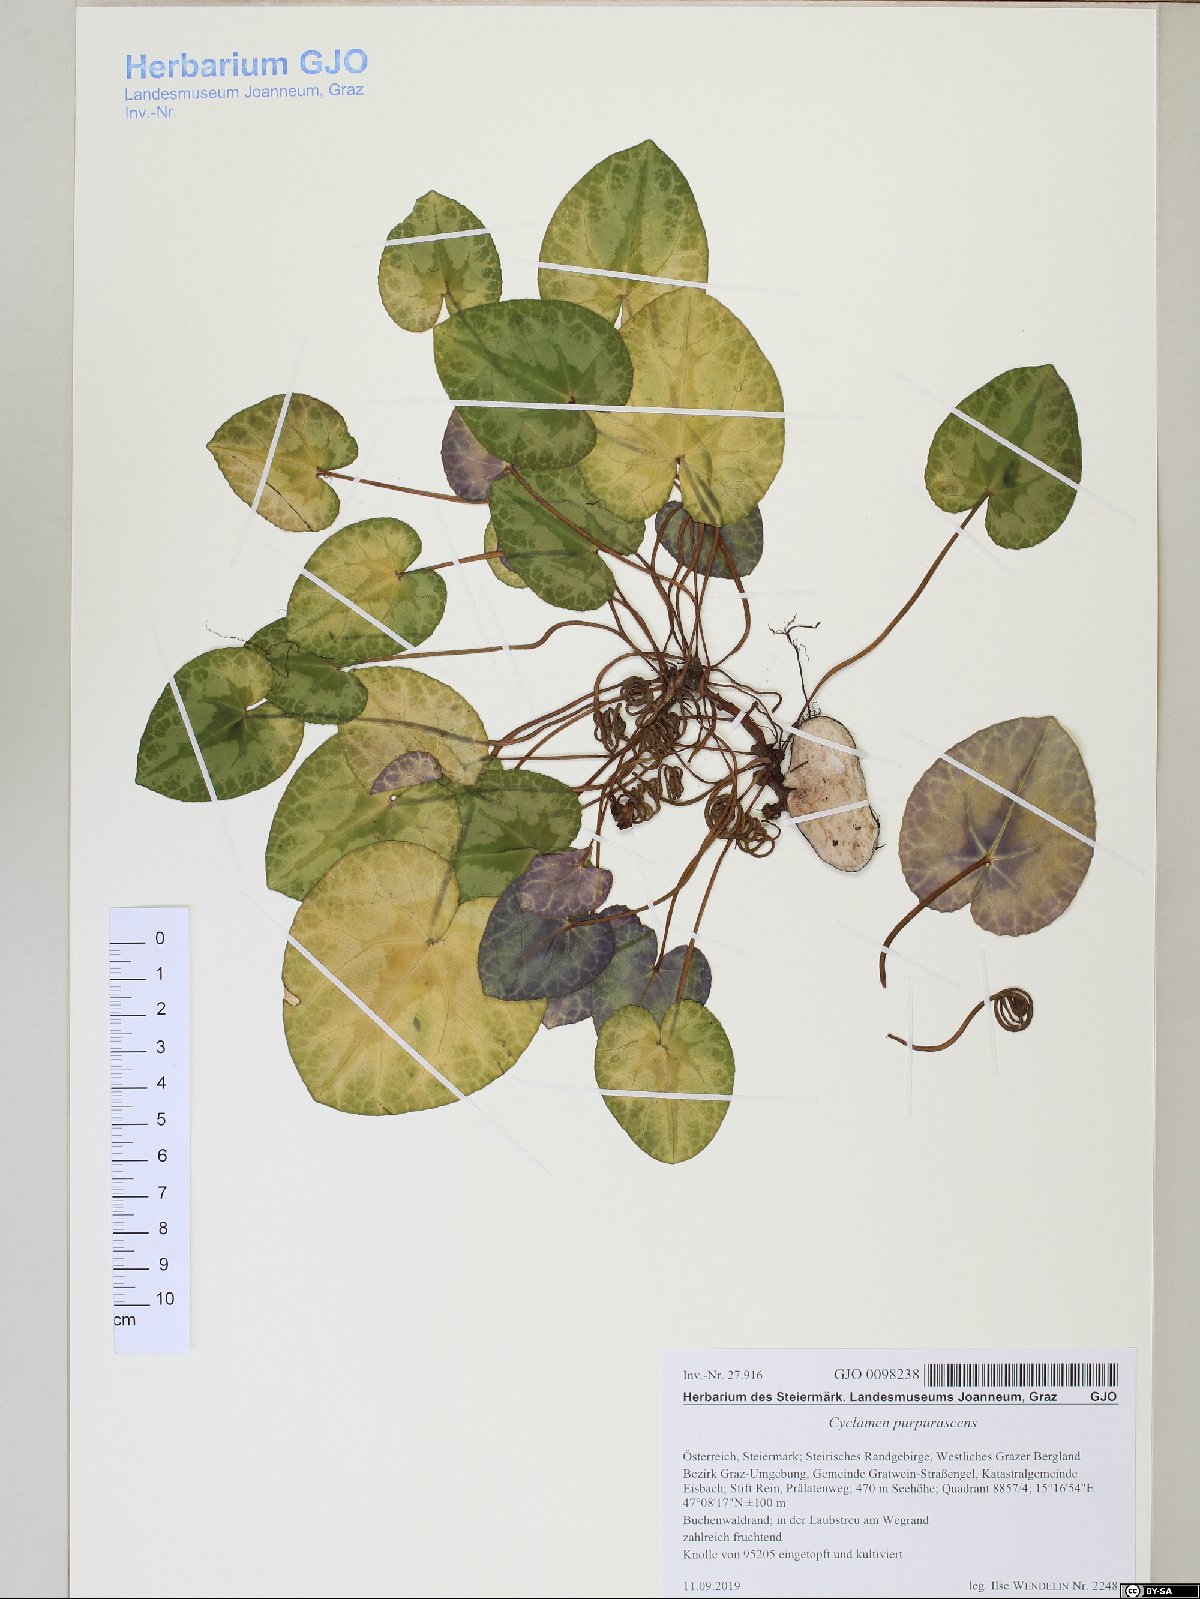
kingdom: Plantae
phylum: Tracheophyta
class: Magnoliopsida
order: Ericales
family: Primulaceae
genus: Cyclamen
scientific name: Cyclamen purpurascens
